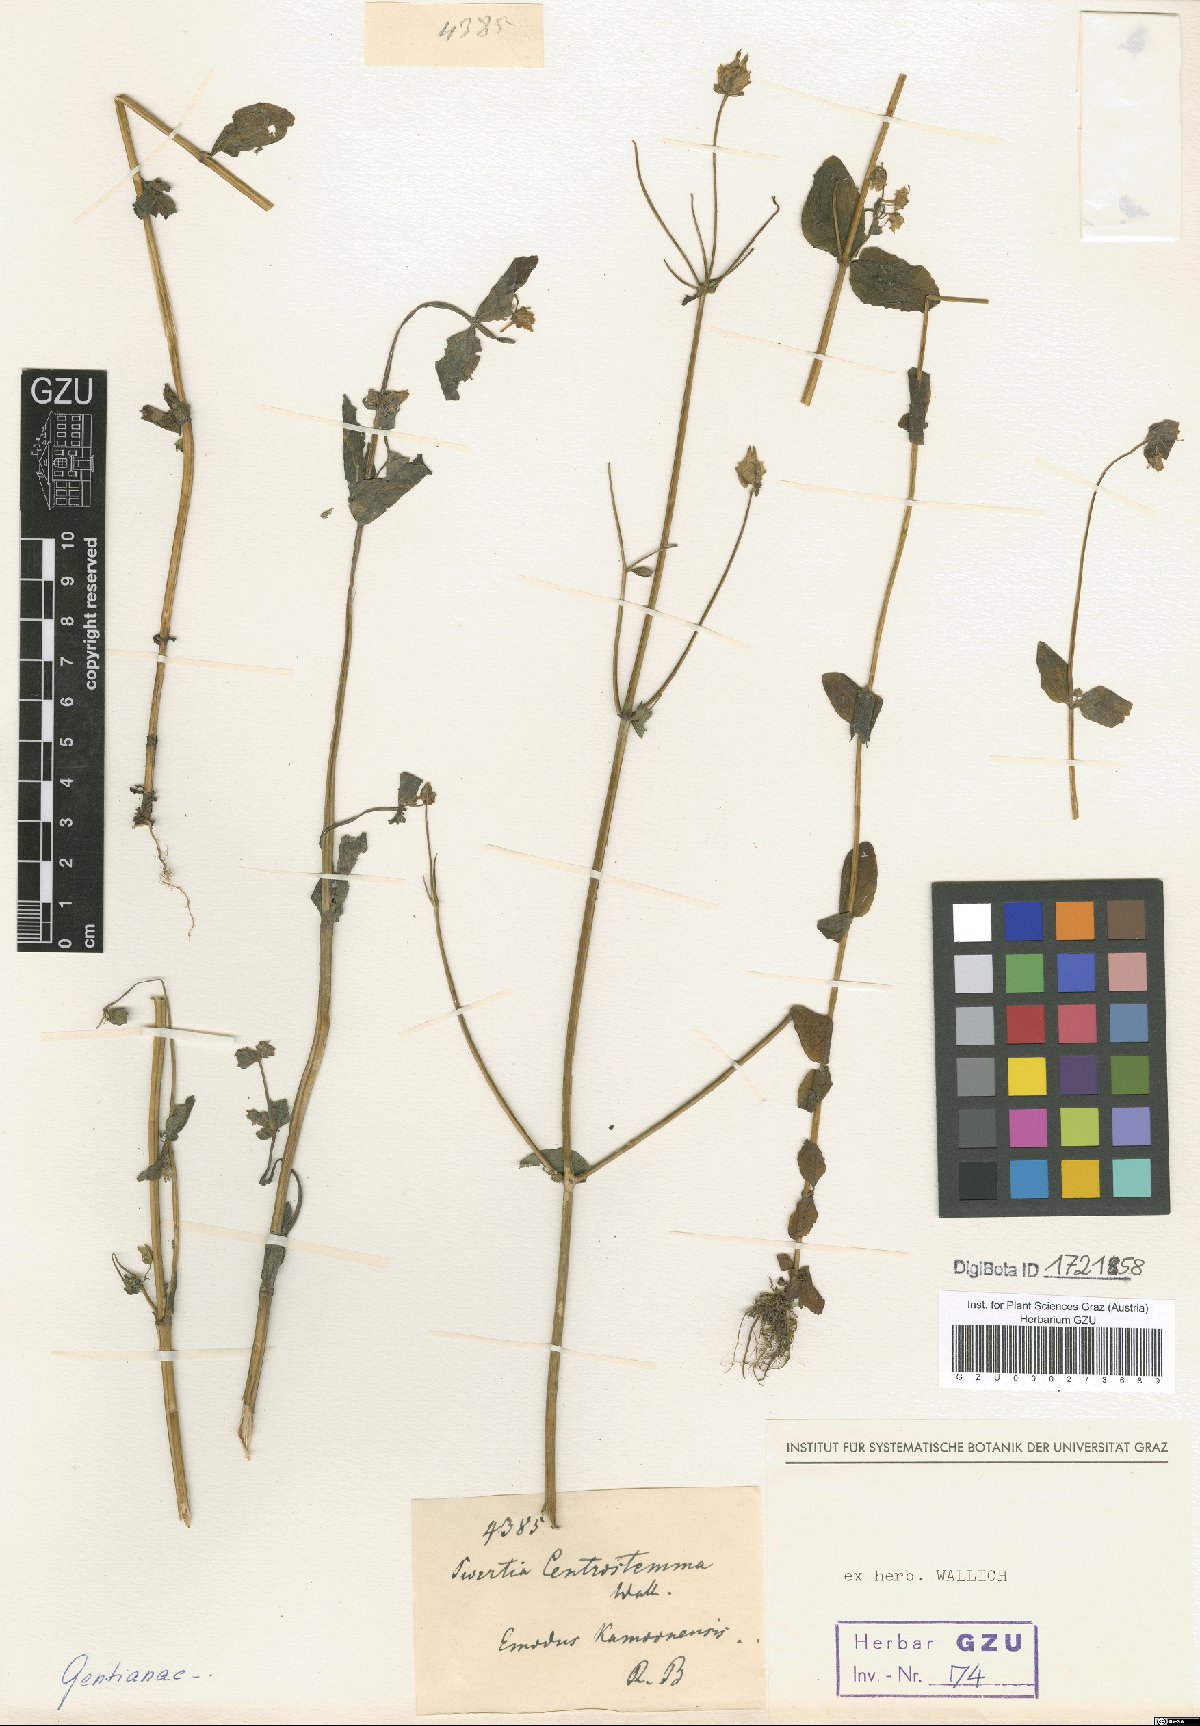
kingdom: Plantae
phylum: Tracheophyta
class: Magnoliopsida
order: Gentianales
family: Gentianaceae
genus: Halenia
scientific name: Halenia elliptica
